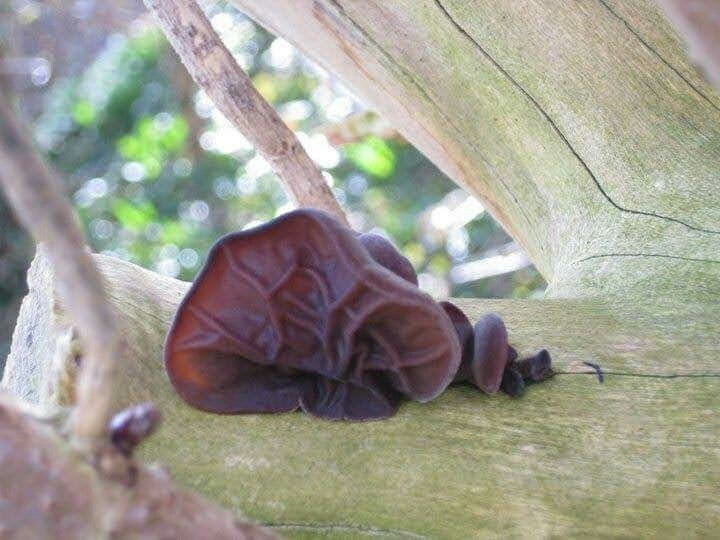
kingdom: Fungi
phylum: Basidiomycota
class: Agaricomycetes
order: Auriculariales
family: Auriculariaceae
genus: Auricularia
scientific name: Auricularia auricula-judae
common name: almindelig judasøre
